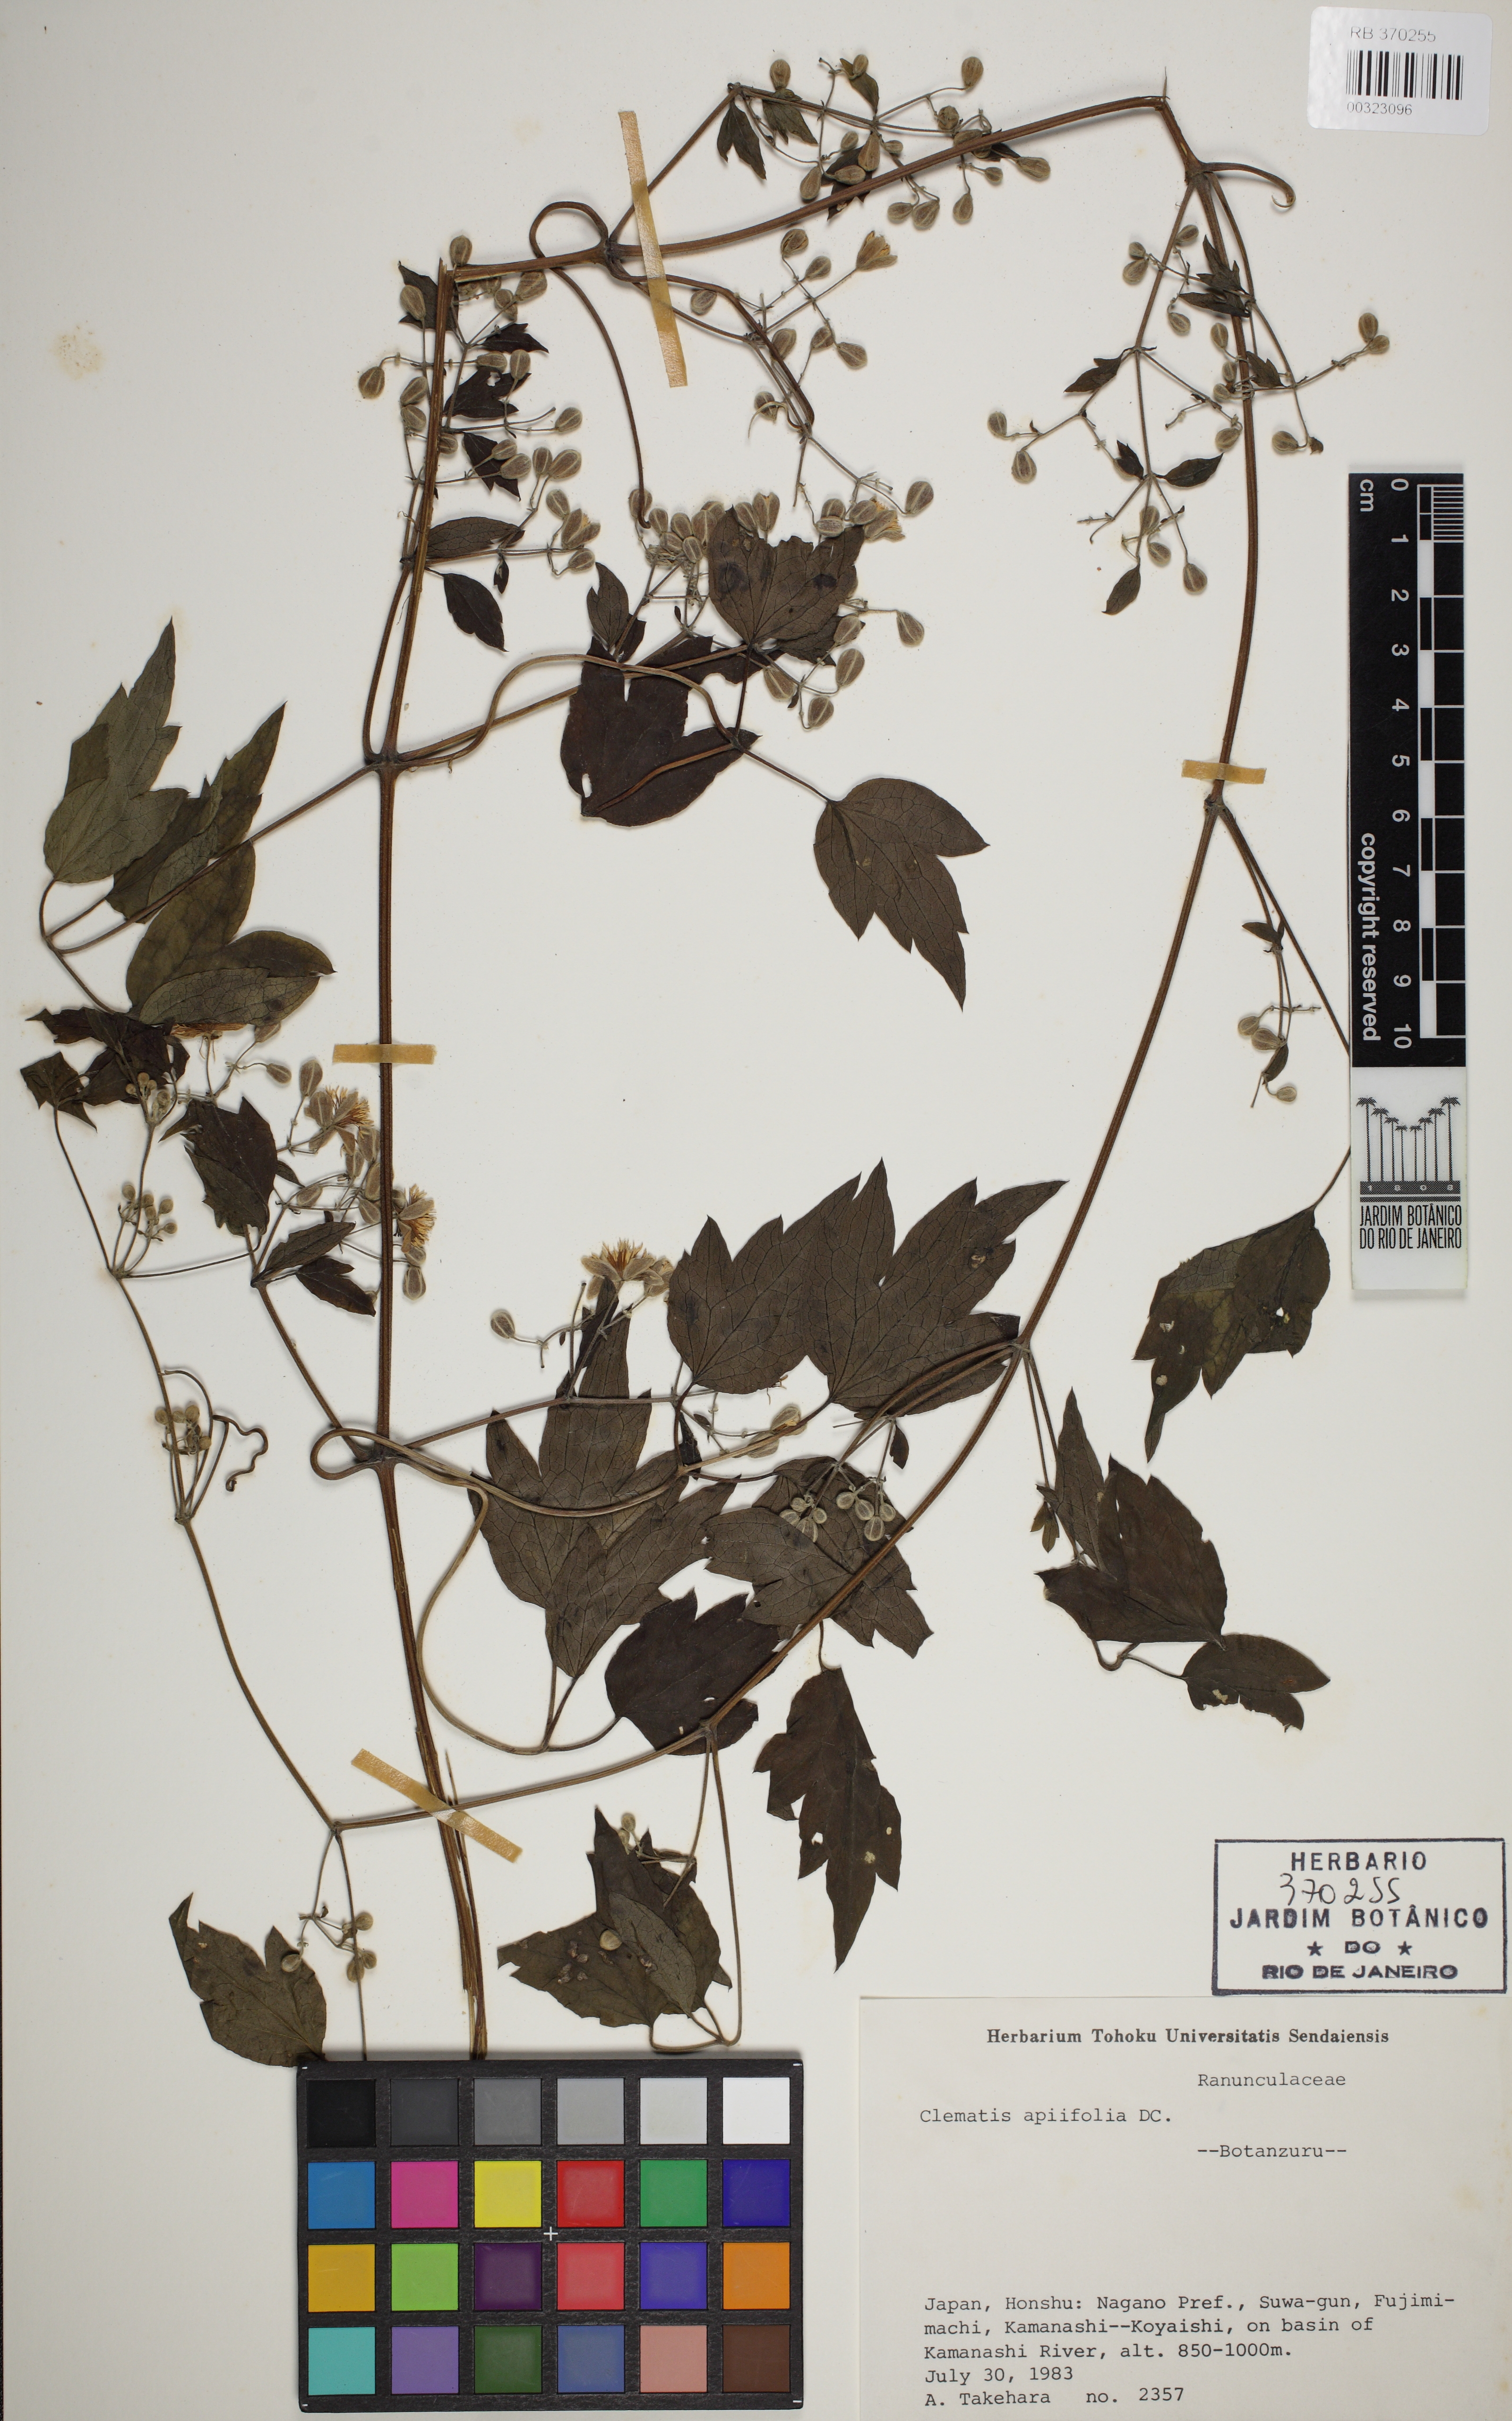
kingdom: Plantae
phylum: Tracheophyta
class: Magnoliopsida
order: Ranunculales
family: Ranunculaceae
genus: Clematis
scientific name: Clematis alpina
